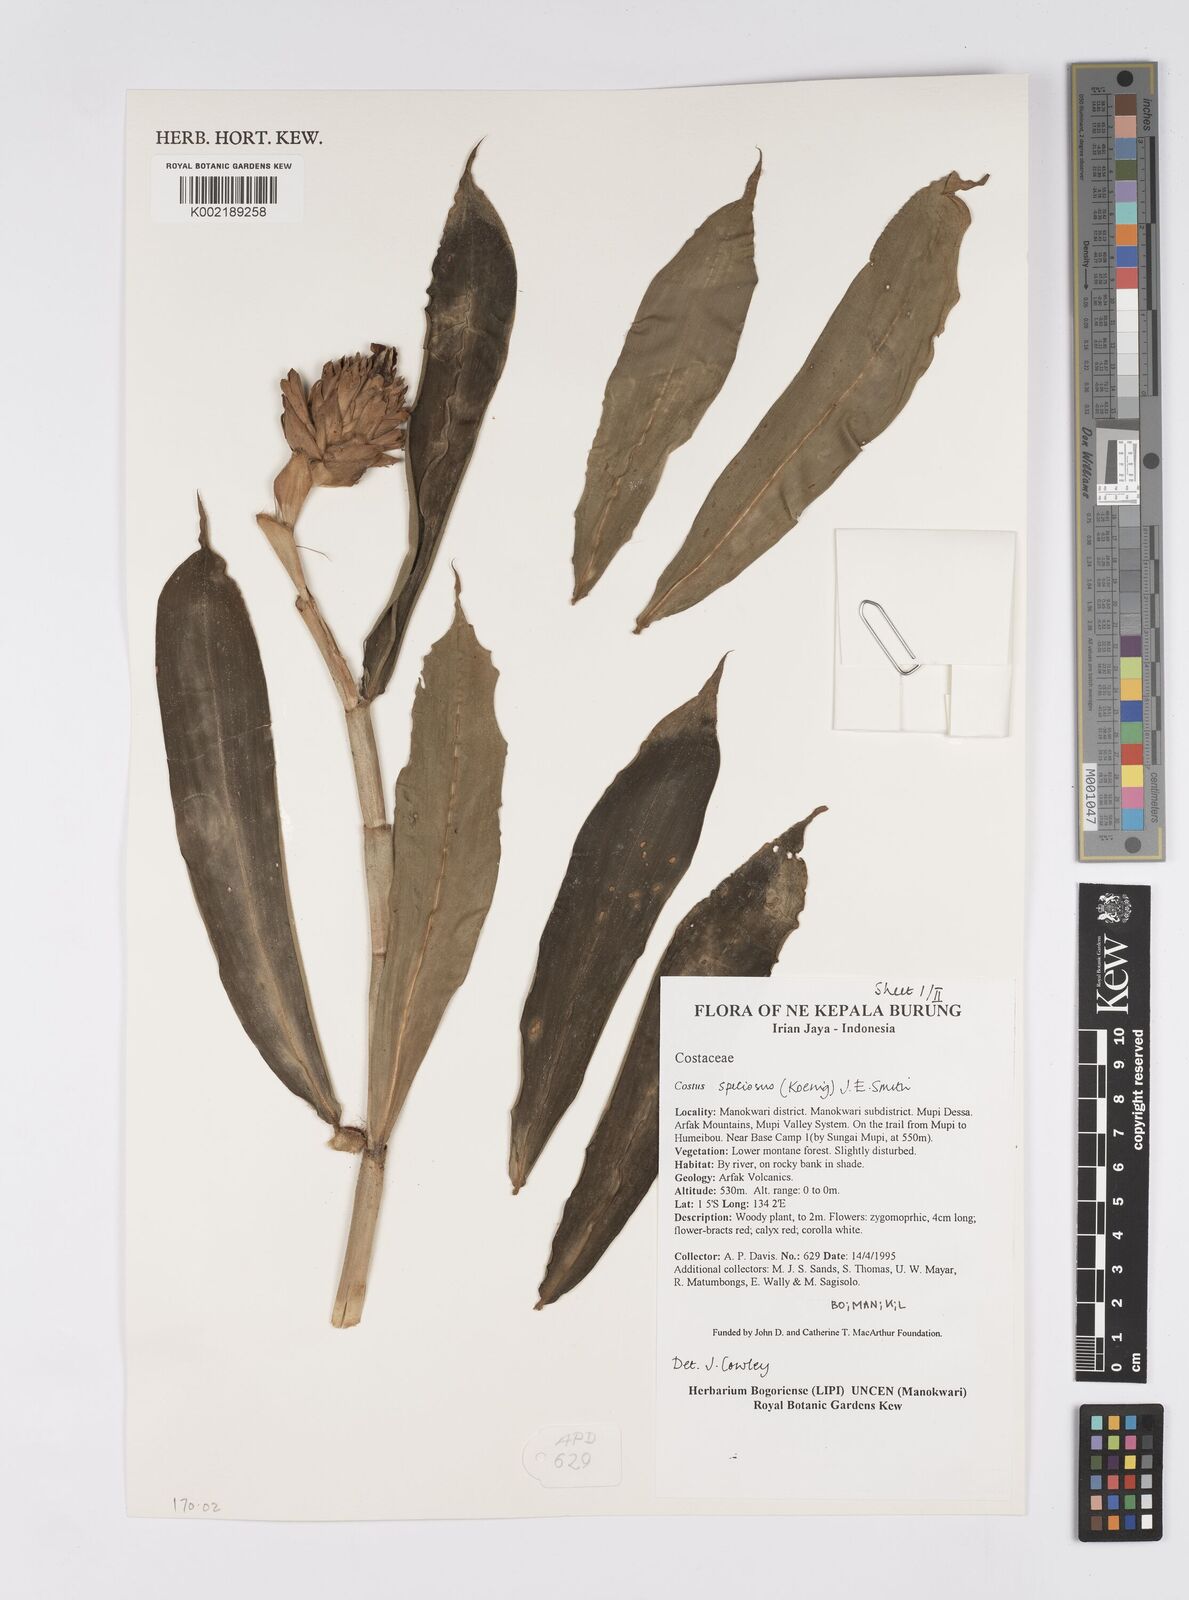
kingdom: Plantae
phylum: Tracheophyta
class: Liliopsida
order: Zingiberales
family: Costaceae
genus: Hellenia
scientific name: Hellenia speciosa
